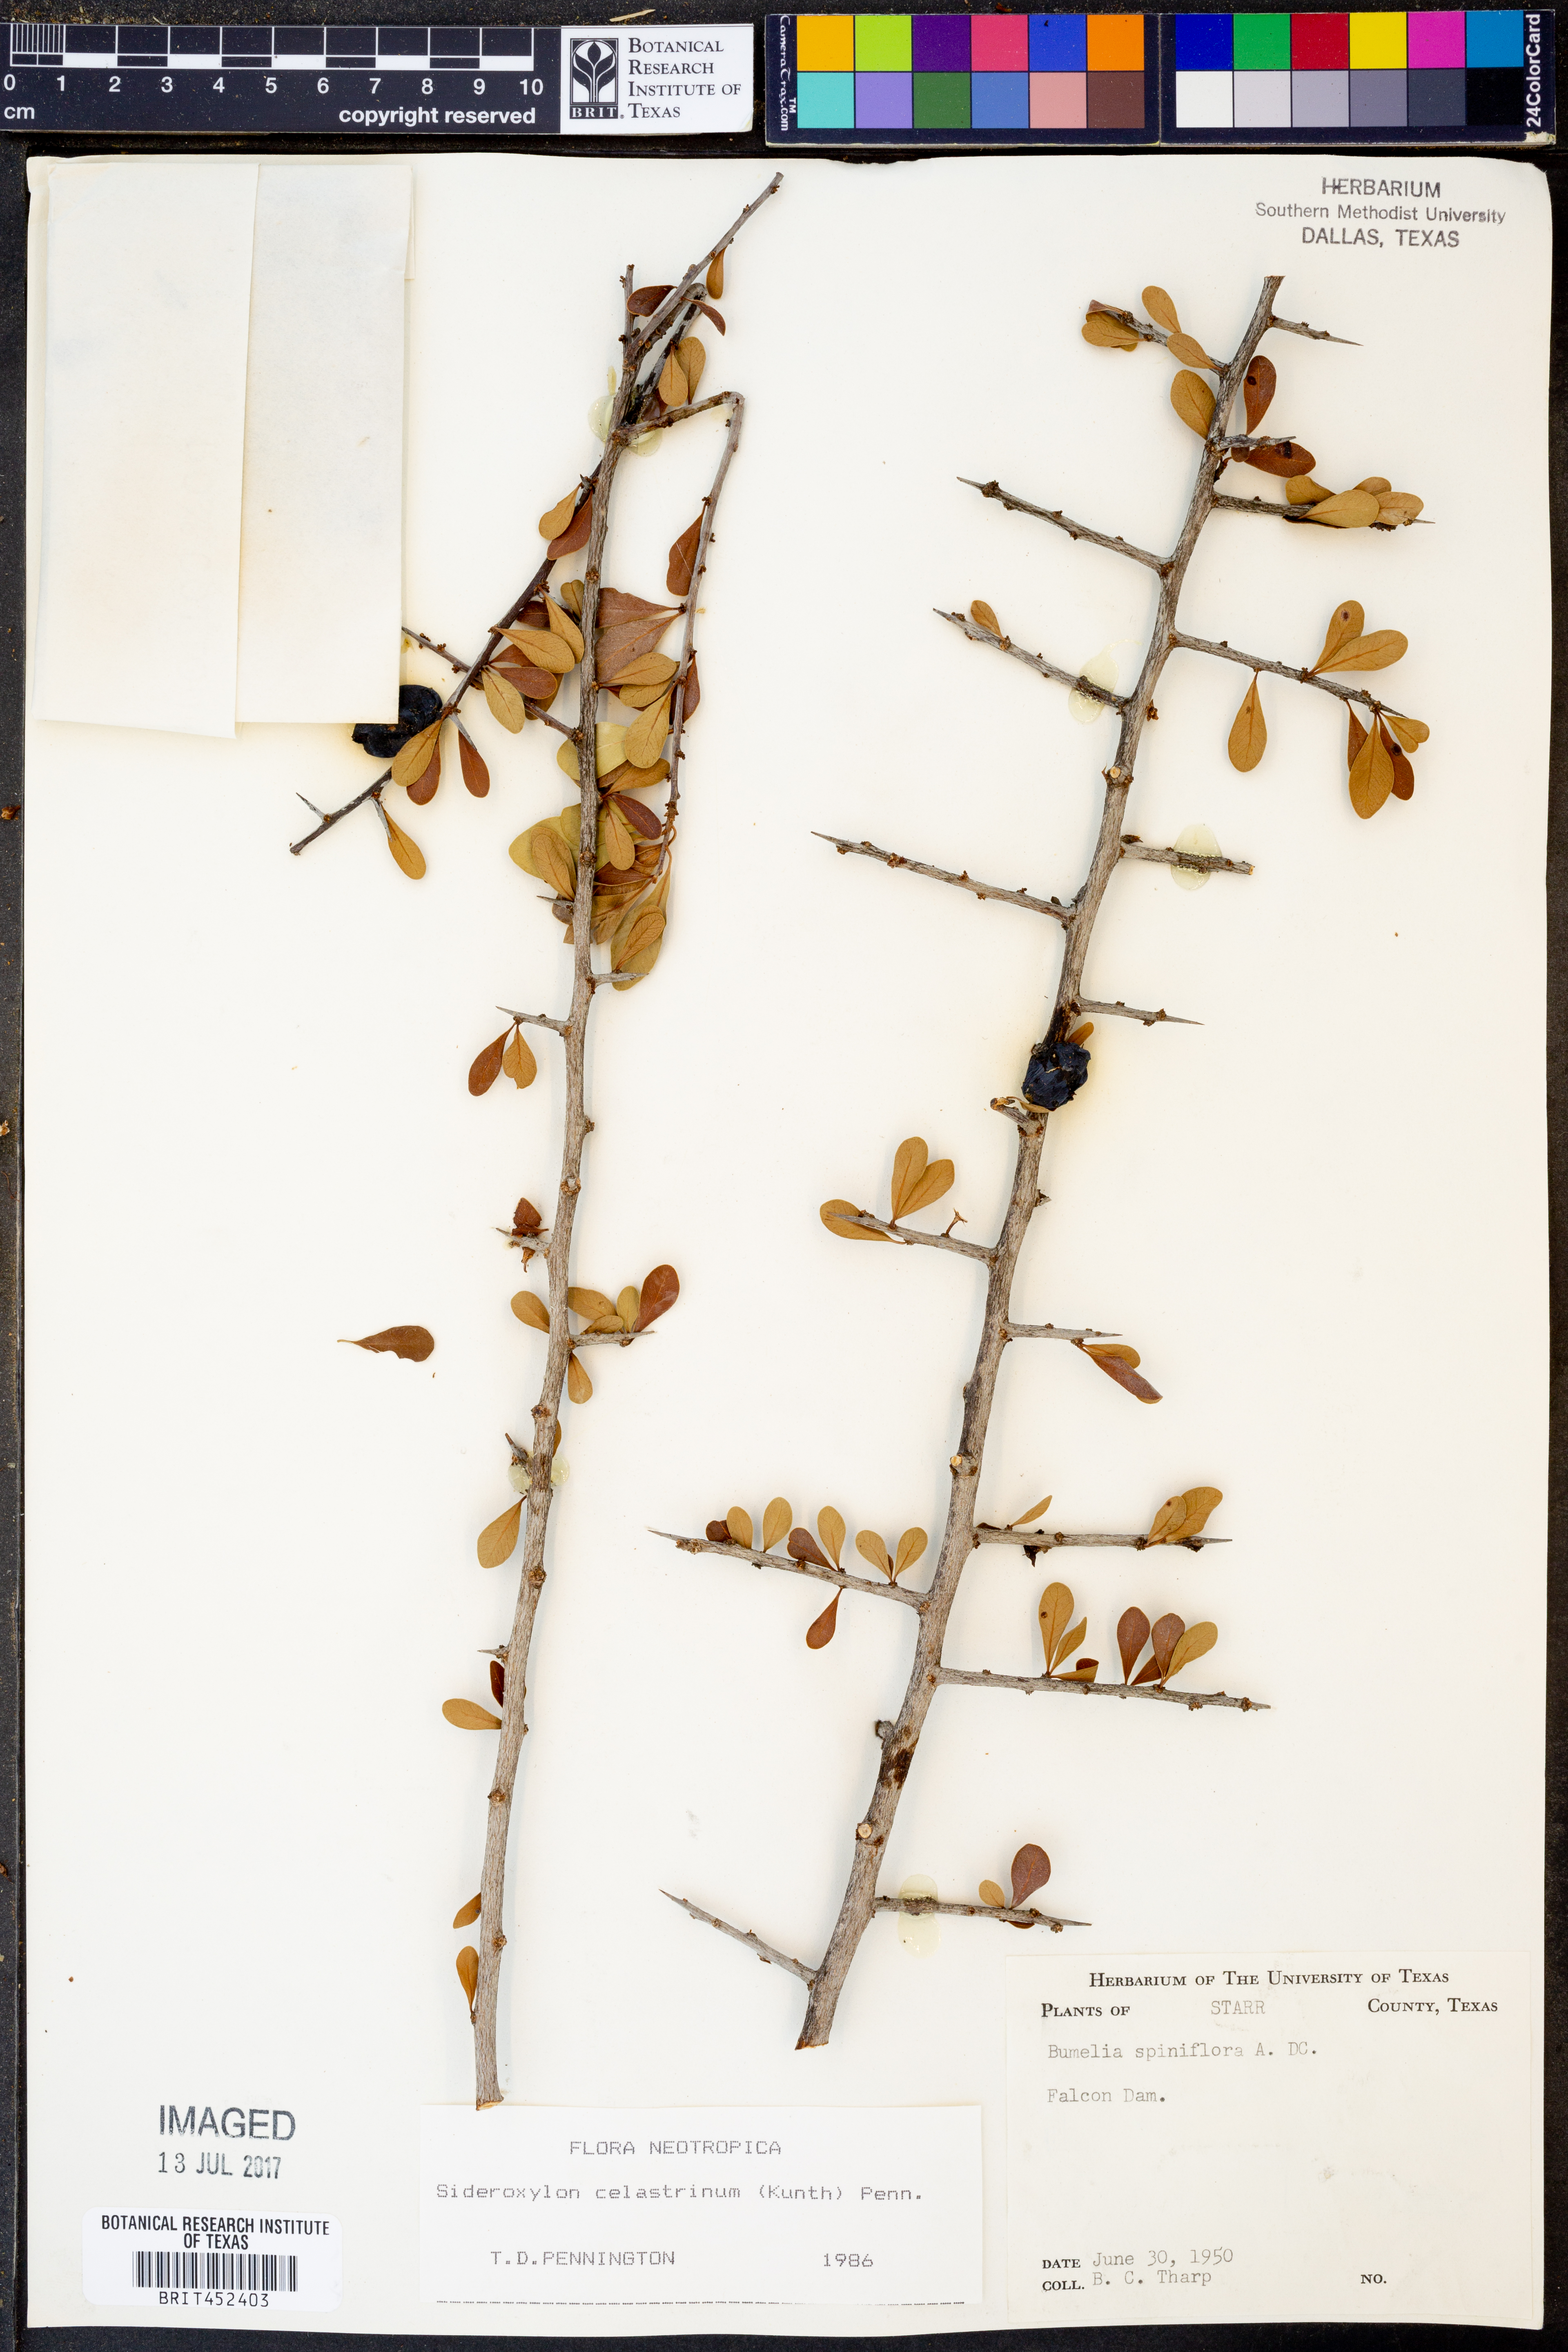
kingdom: Plantae
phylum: Tracheophyta
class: Magnoliopsida
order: Ericales
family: Sapotaceae
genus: Sideroxylon
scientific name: Sideroxylon celastrinum
